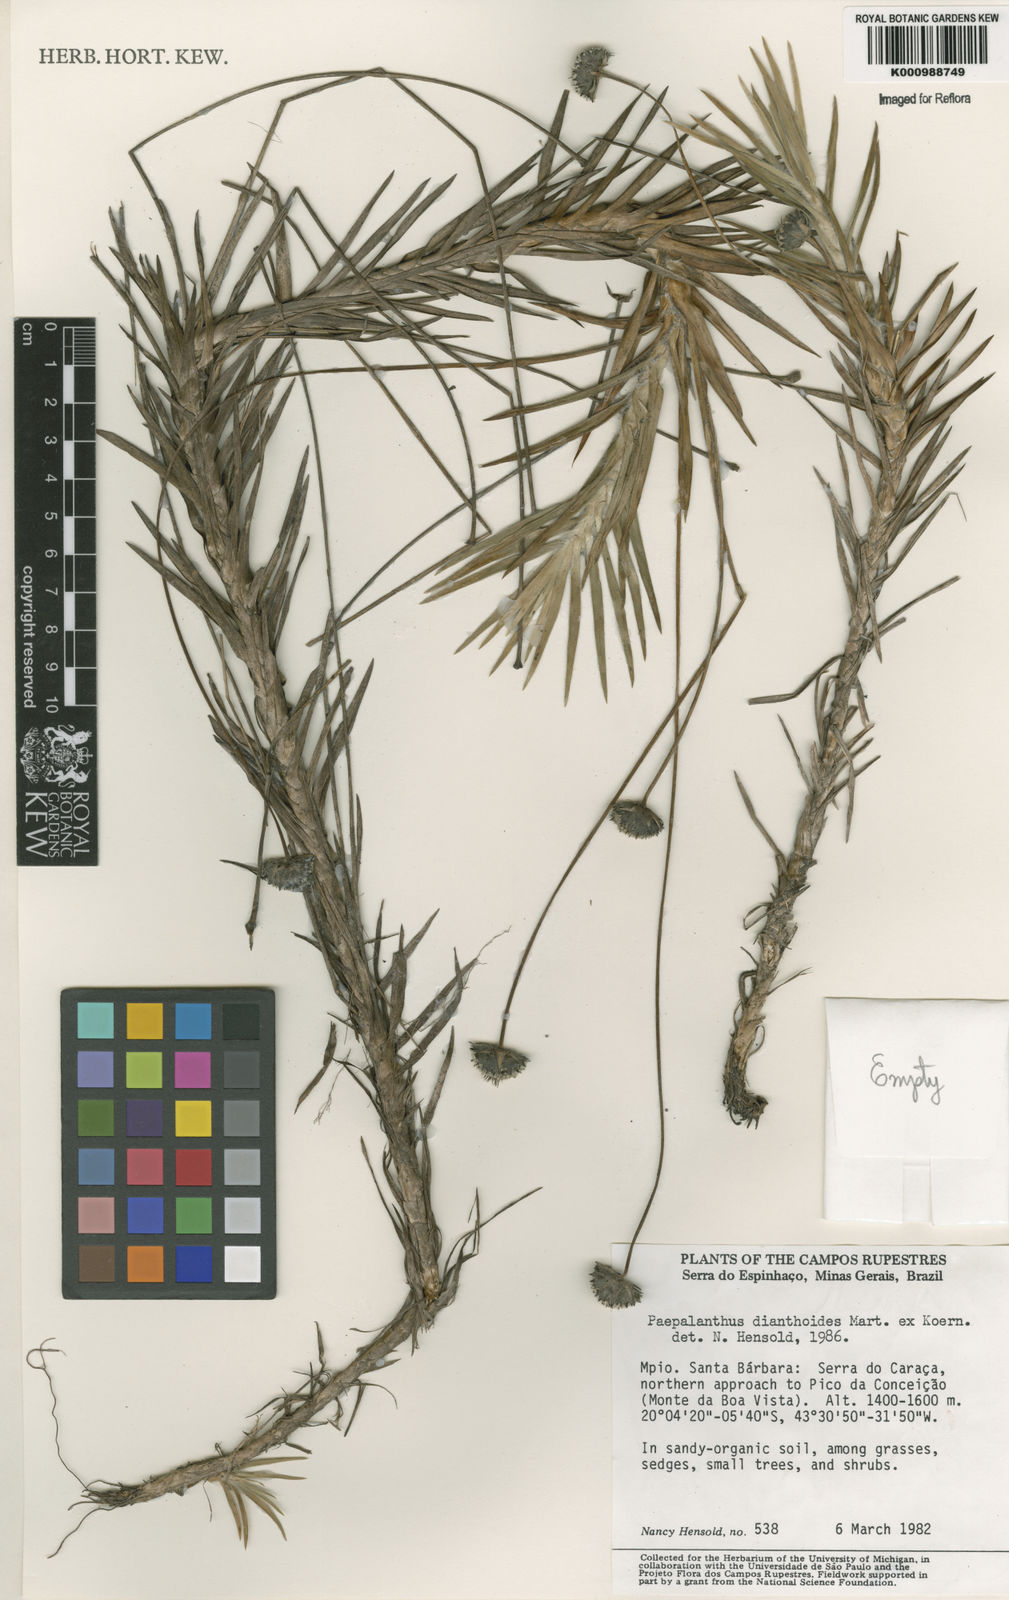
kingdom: Plantae
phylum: Tracheophyta
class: Liliopsida
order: Poales
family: Eriocaulaceae
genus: Paepalanthus
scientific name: Paepalanthus
